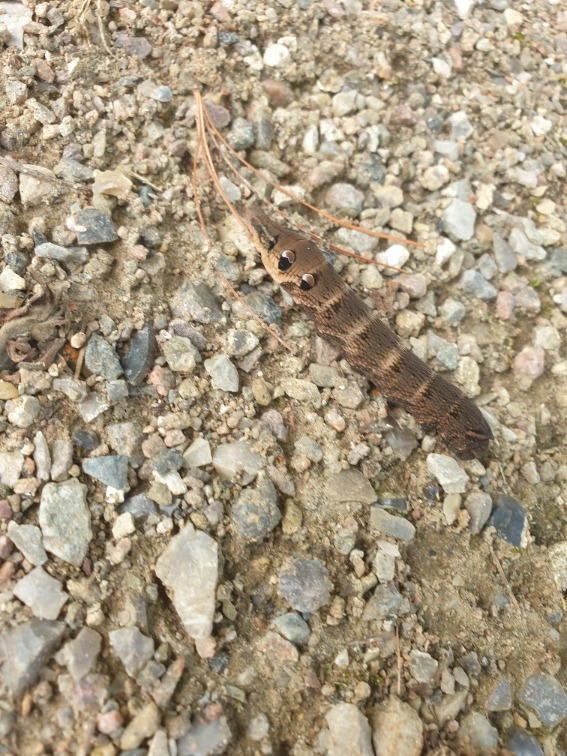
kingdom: Animalia
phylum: Arthropoda
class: Insecta
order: Lepidoptera
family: Sphingidae
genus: Deilephila
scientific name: Deilephila elpenor
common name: Dueurtsværmer
